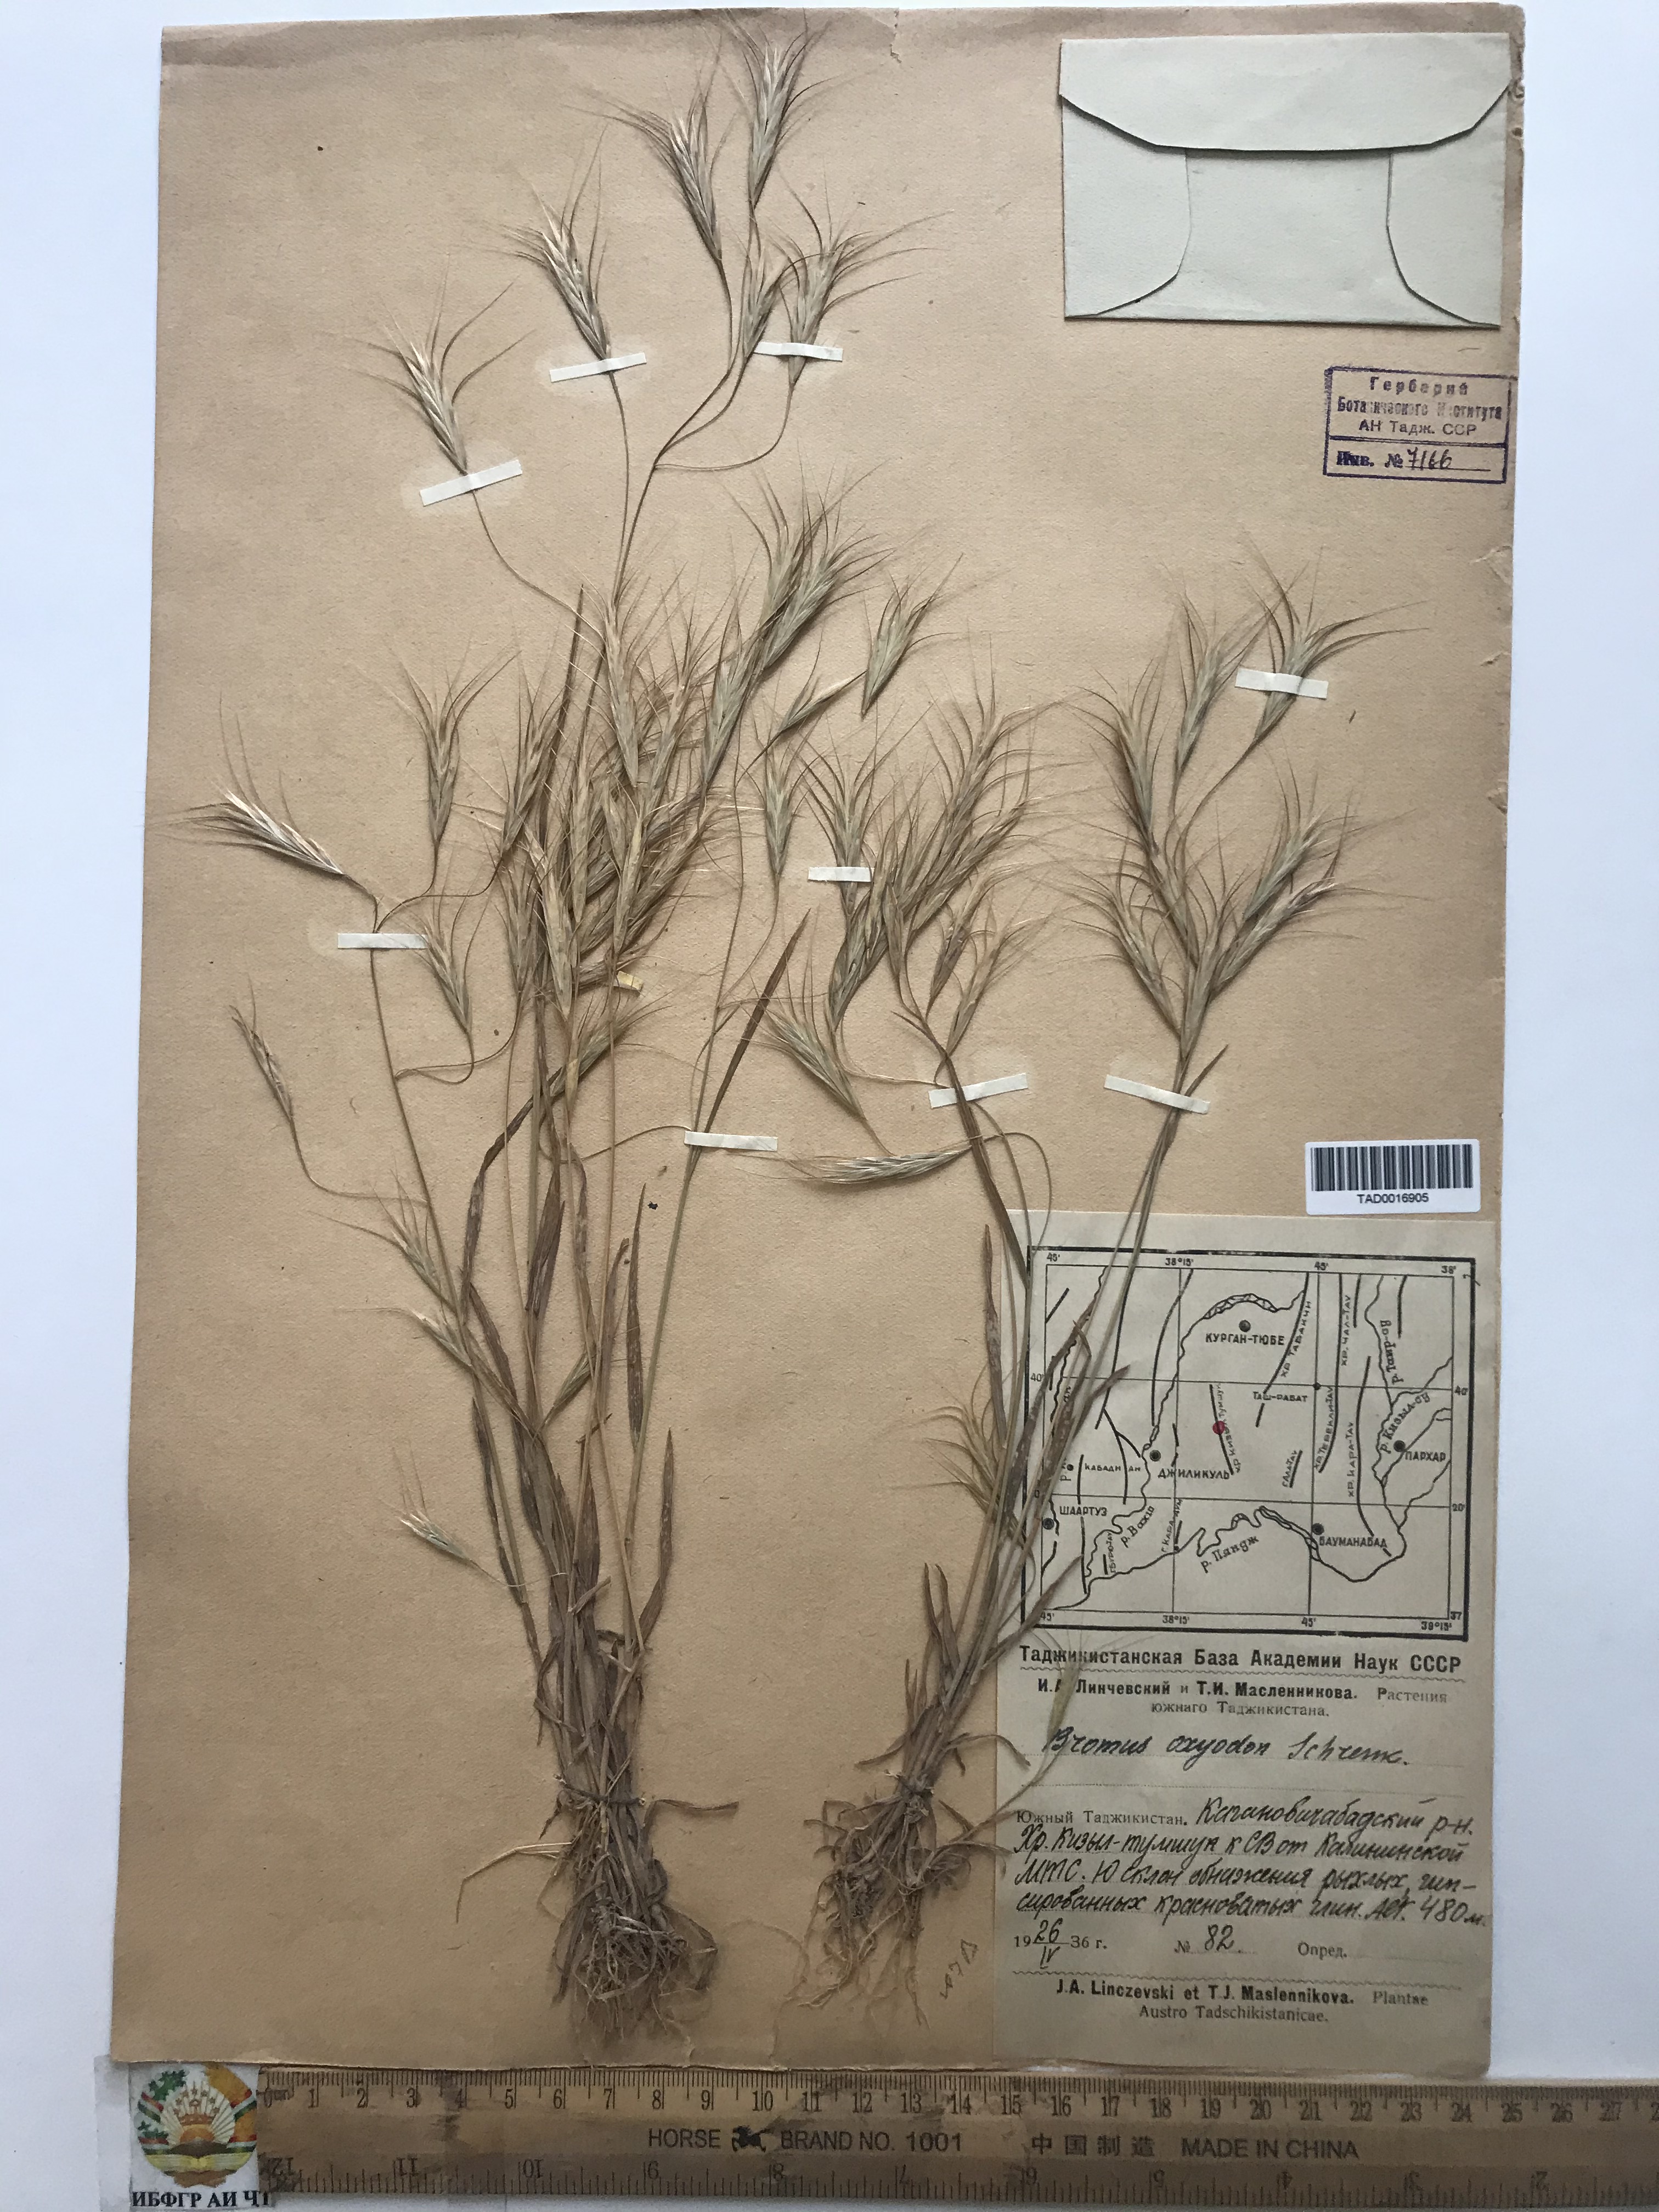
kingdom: Plantae
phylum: Tracheophyta
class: Liliopsida
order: Poales
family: Poaceae
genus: Bromus
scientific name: Bromus oxyodon
